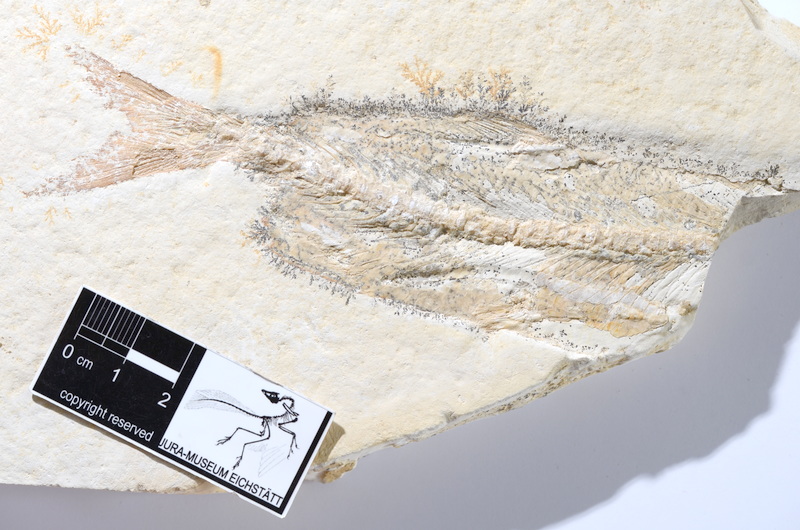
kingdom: Animalia
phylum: Chordata
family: Ascalaboidae
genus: Tharsis
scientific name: Tharsis dubius
